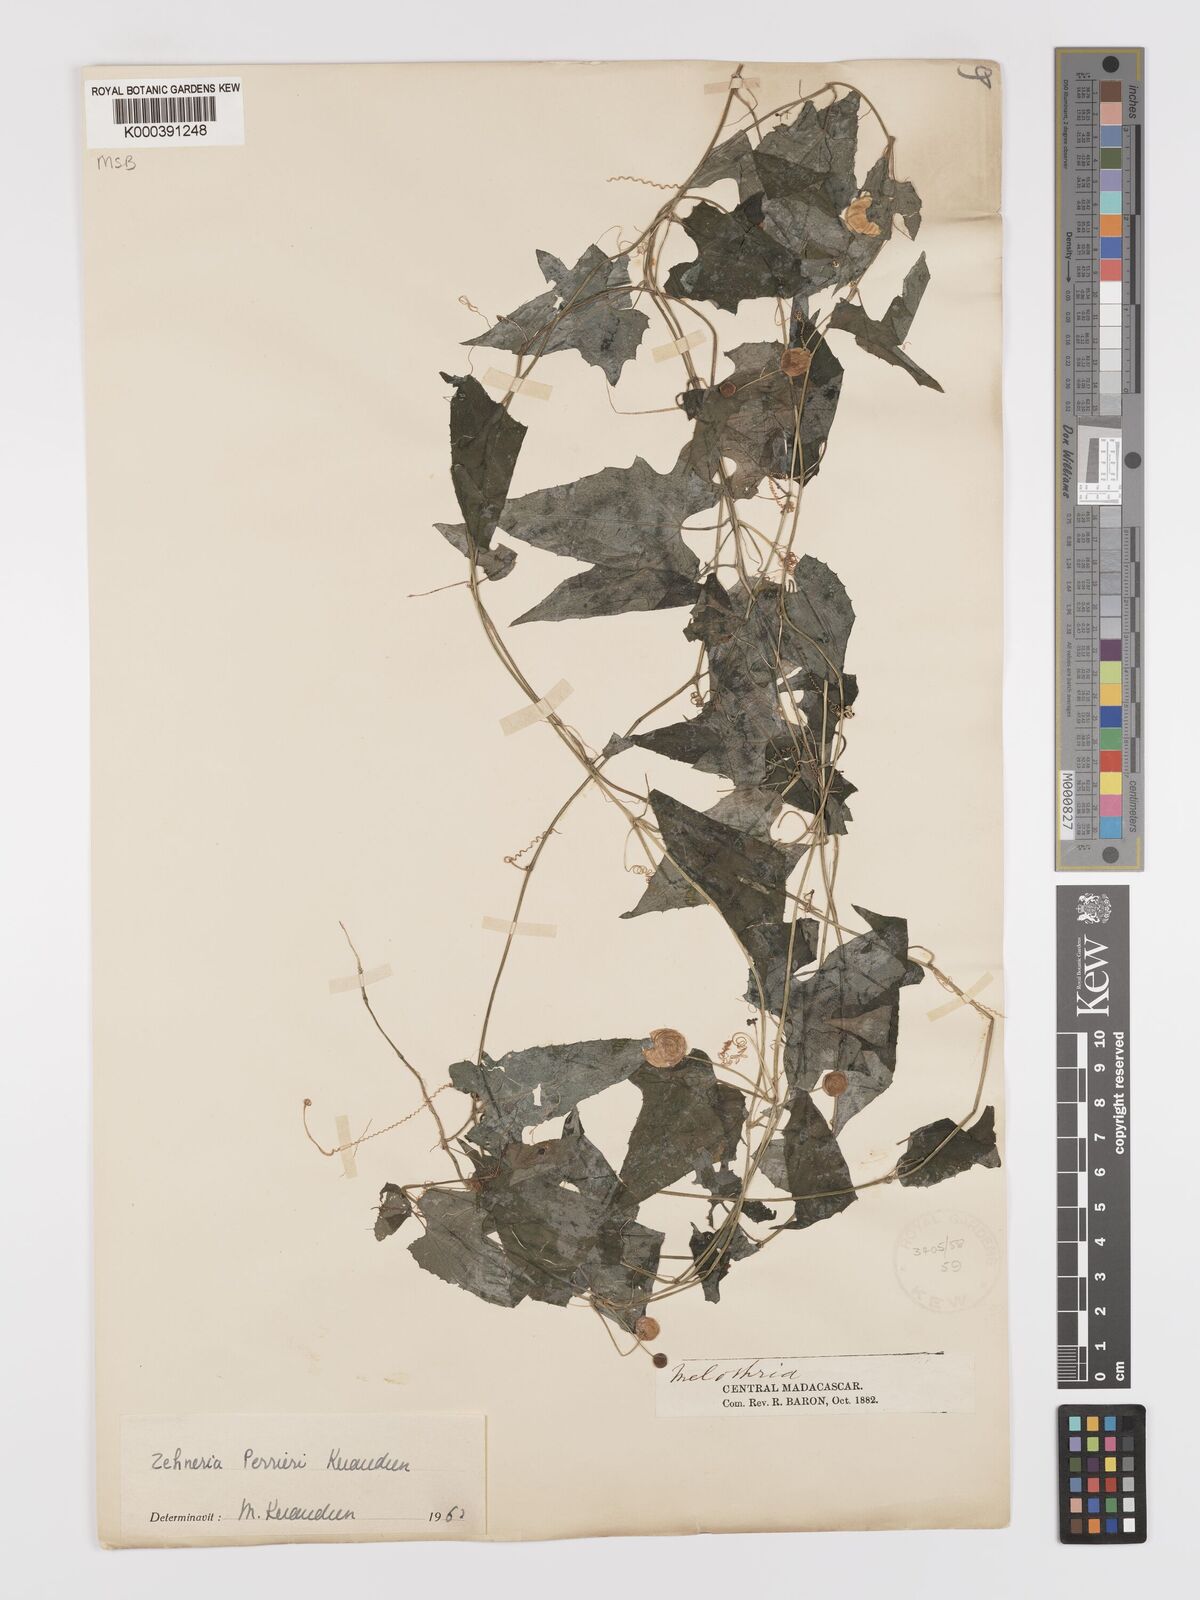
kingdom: Plantae
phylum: Tracheophyta
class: Magnoliopsida
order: Cucurbitales
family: Cucurbitaceae
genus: Zehneria
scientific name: Zehneria perrieri
